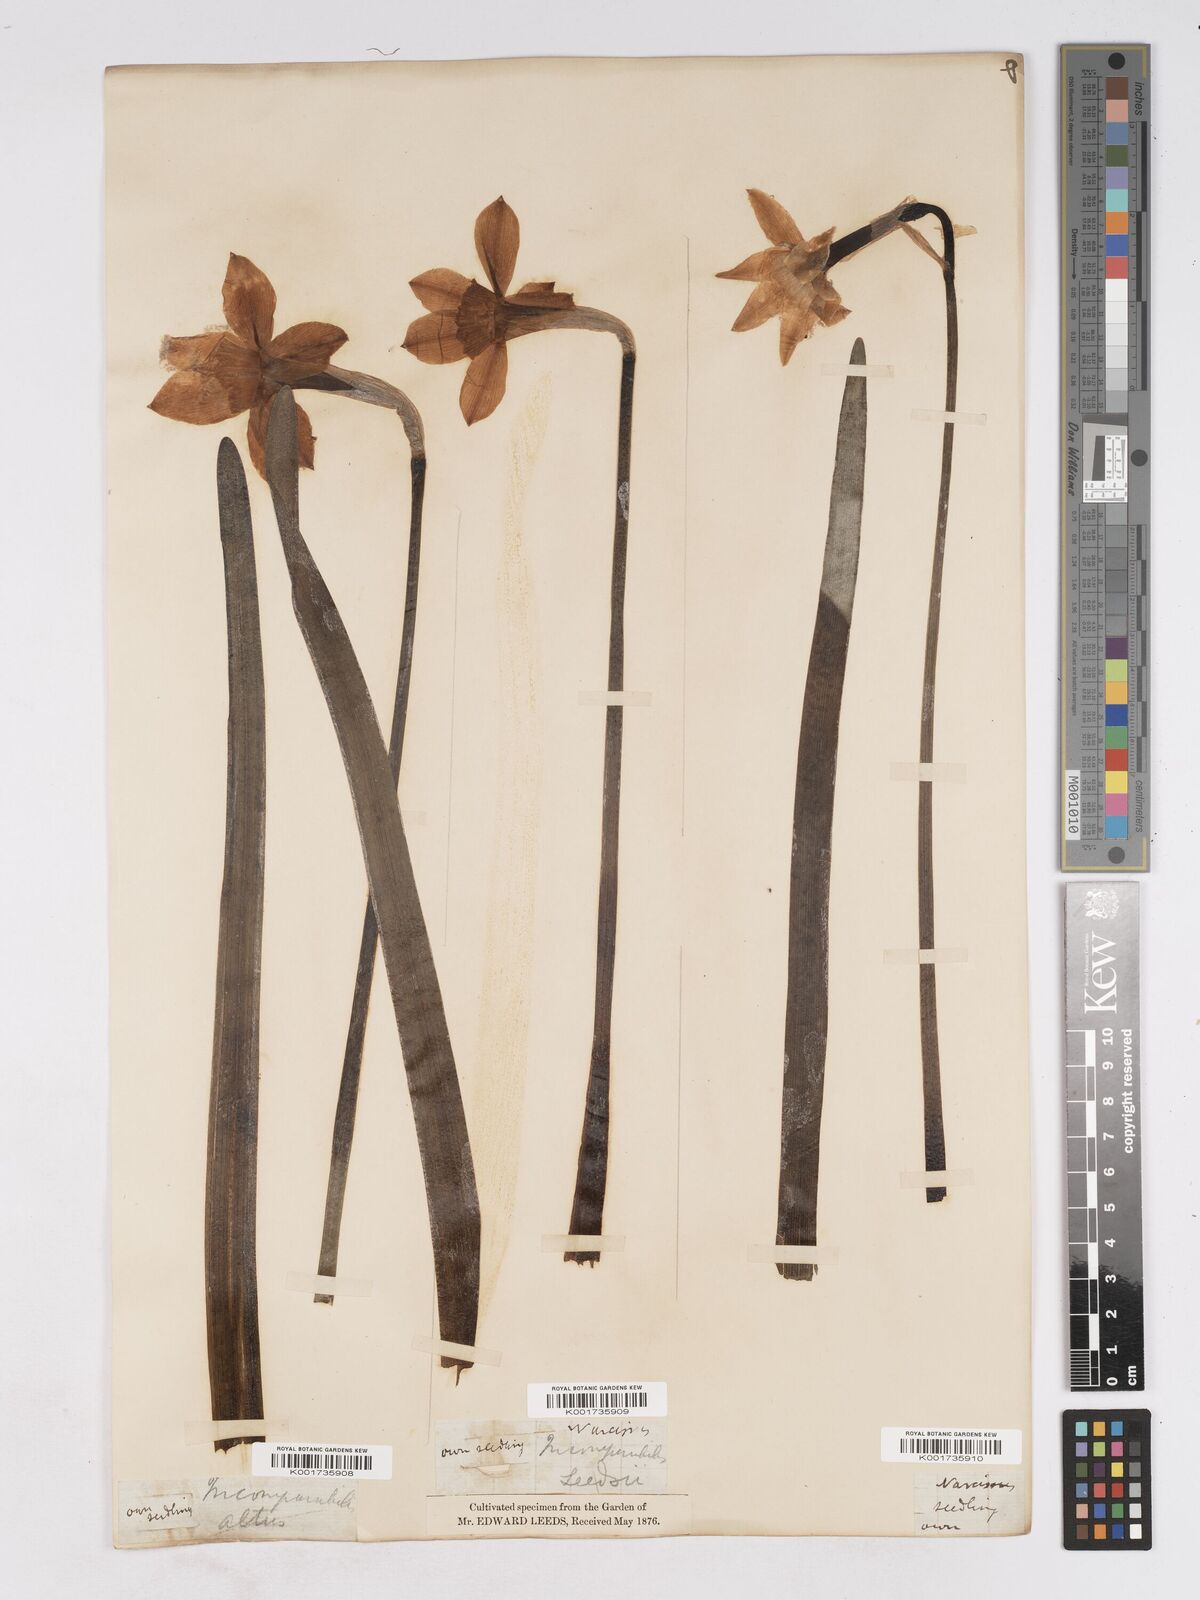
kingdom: Plantae
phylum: Tracheophyta
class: Liliopsida
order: Asparagales
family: Amaryllidaceae
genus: Narcissus
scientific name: Narcissus incomparabilis
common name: Nonesuch daffodil
